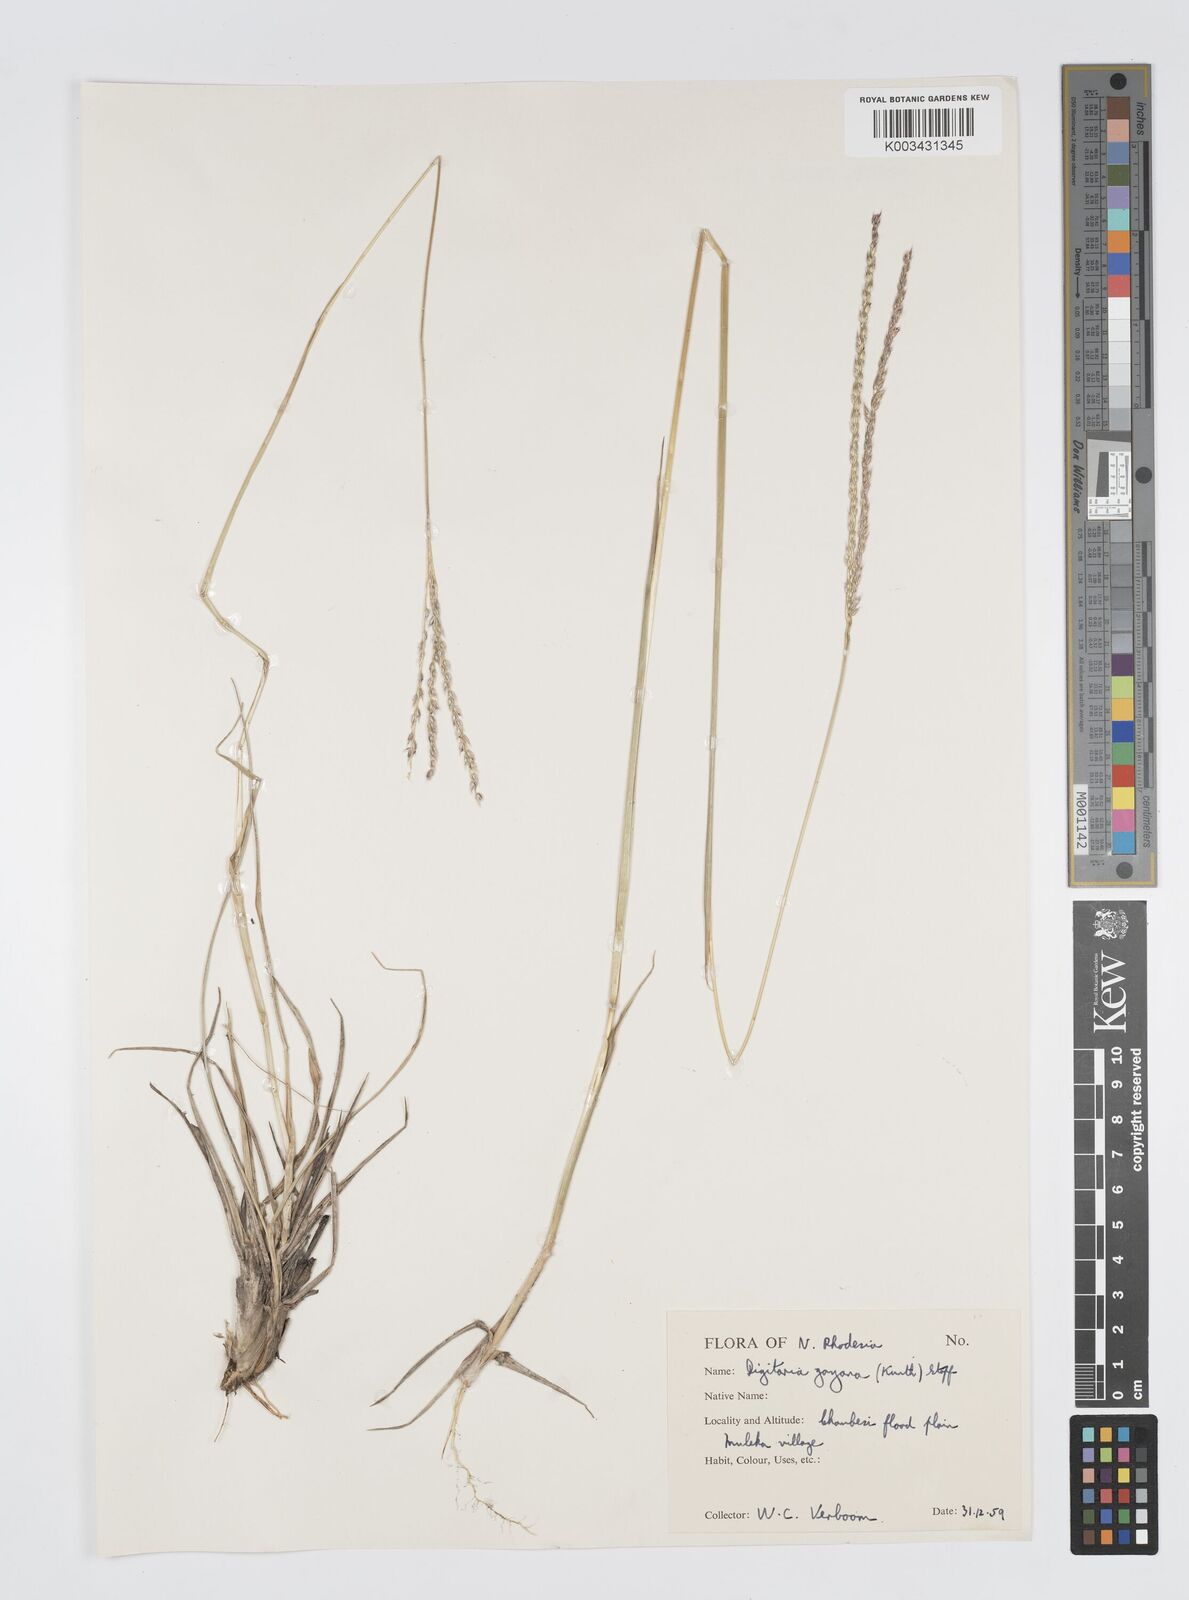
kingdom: Plantae
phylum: Tracheophyta
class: Liliopsida
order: Poales
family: Poaceae
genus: Digitaria
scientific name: Digitaria brazzae
